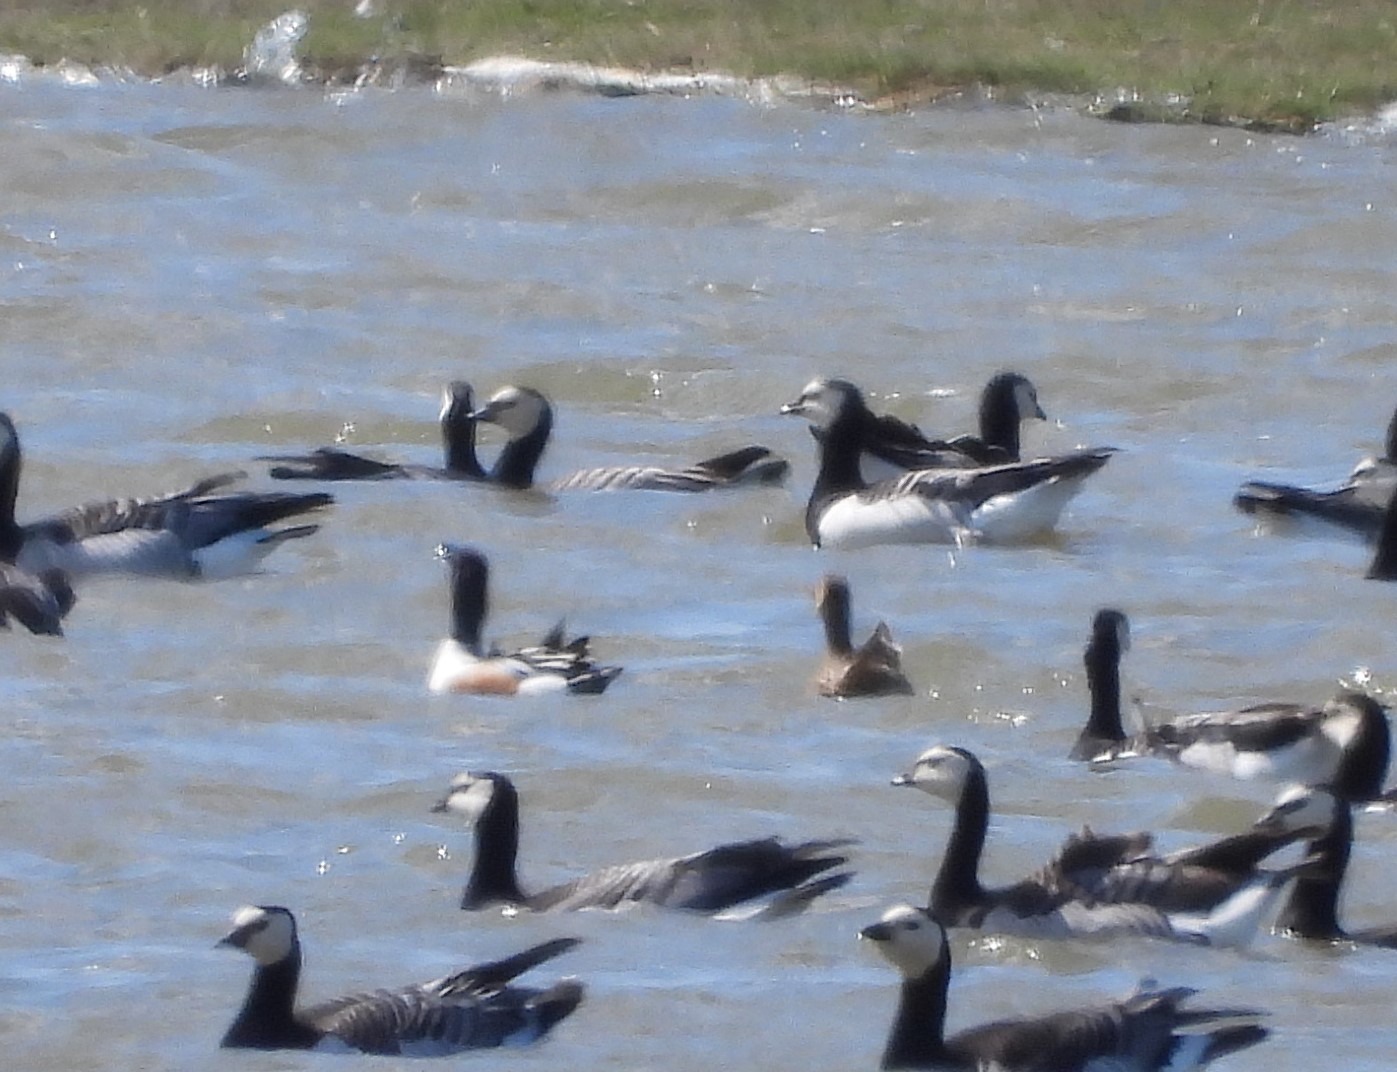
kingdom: Animalia
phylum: Chordata
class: Aves
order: Anseriformes
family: Anatidae
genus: Spatula
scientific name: Spatula clypeata
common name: Skeand
